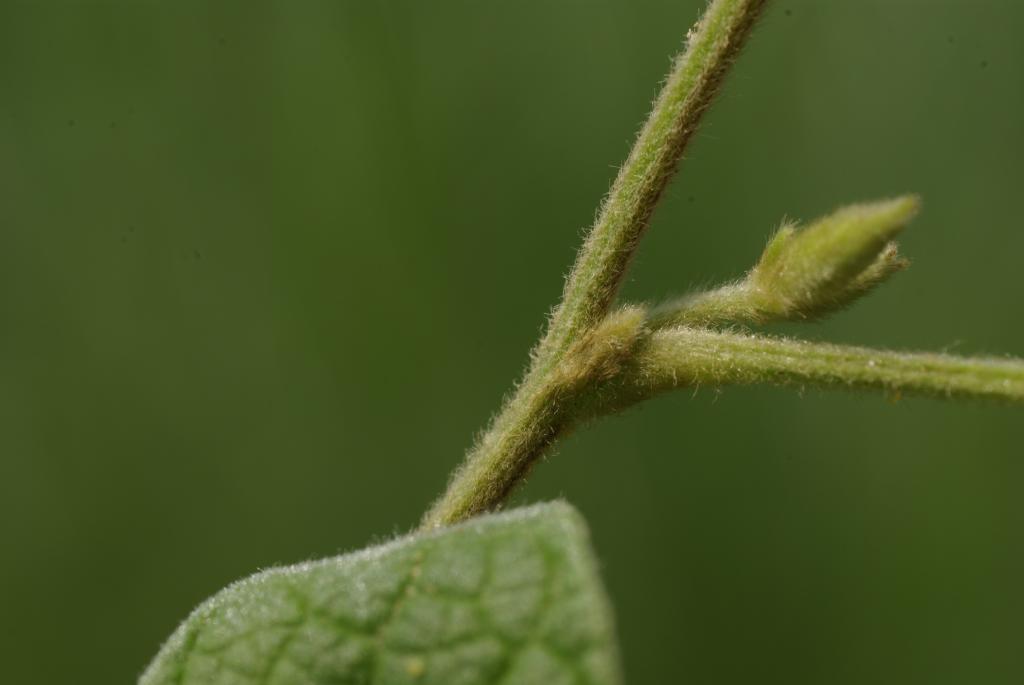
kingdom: Plantae
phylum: Tracheophyta
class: Magnoliopsida
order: Fabales
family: Fabaceae
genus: Cajanus
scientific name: Cajanus scarabaeoides
